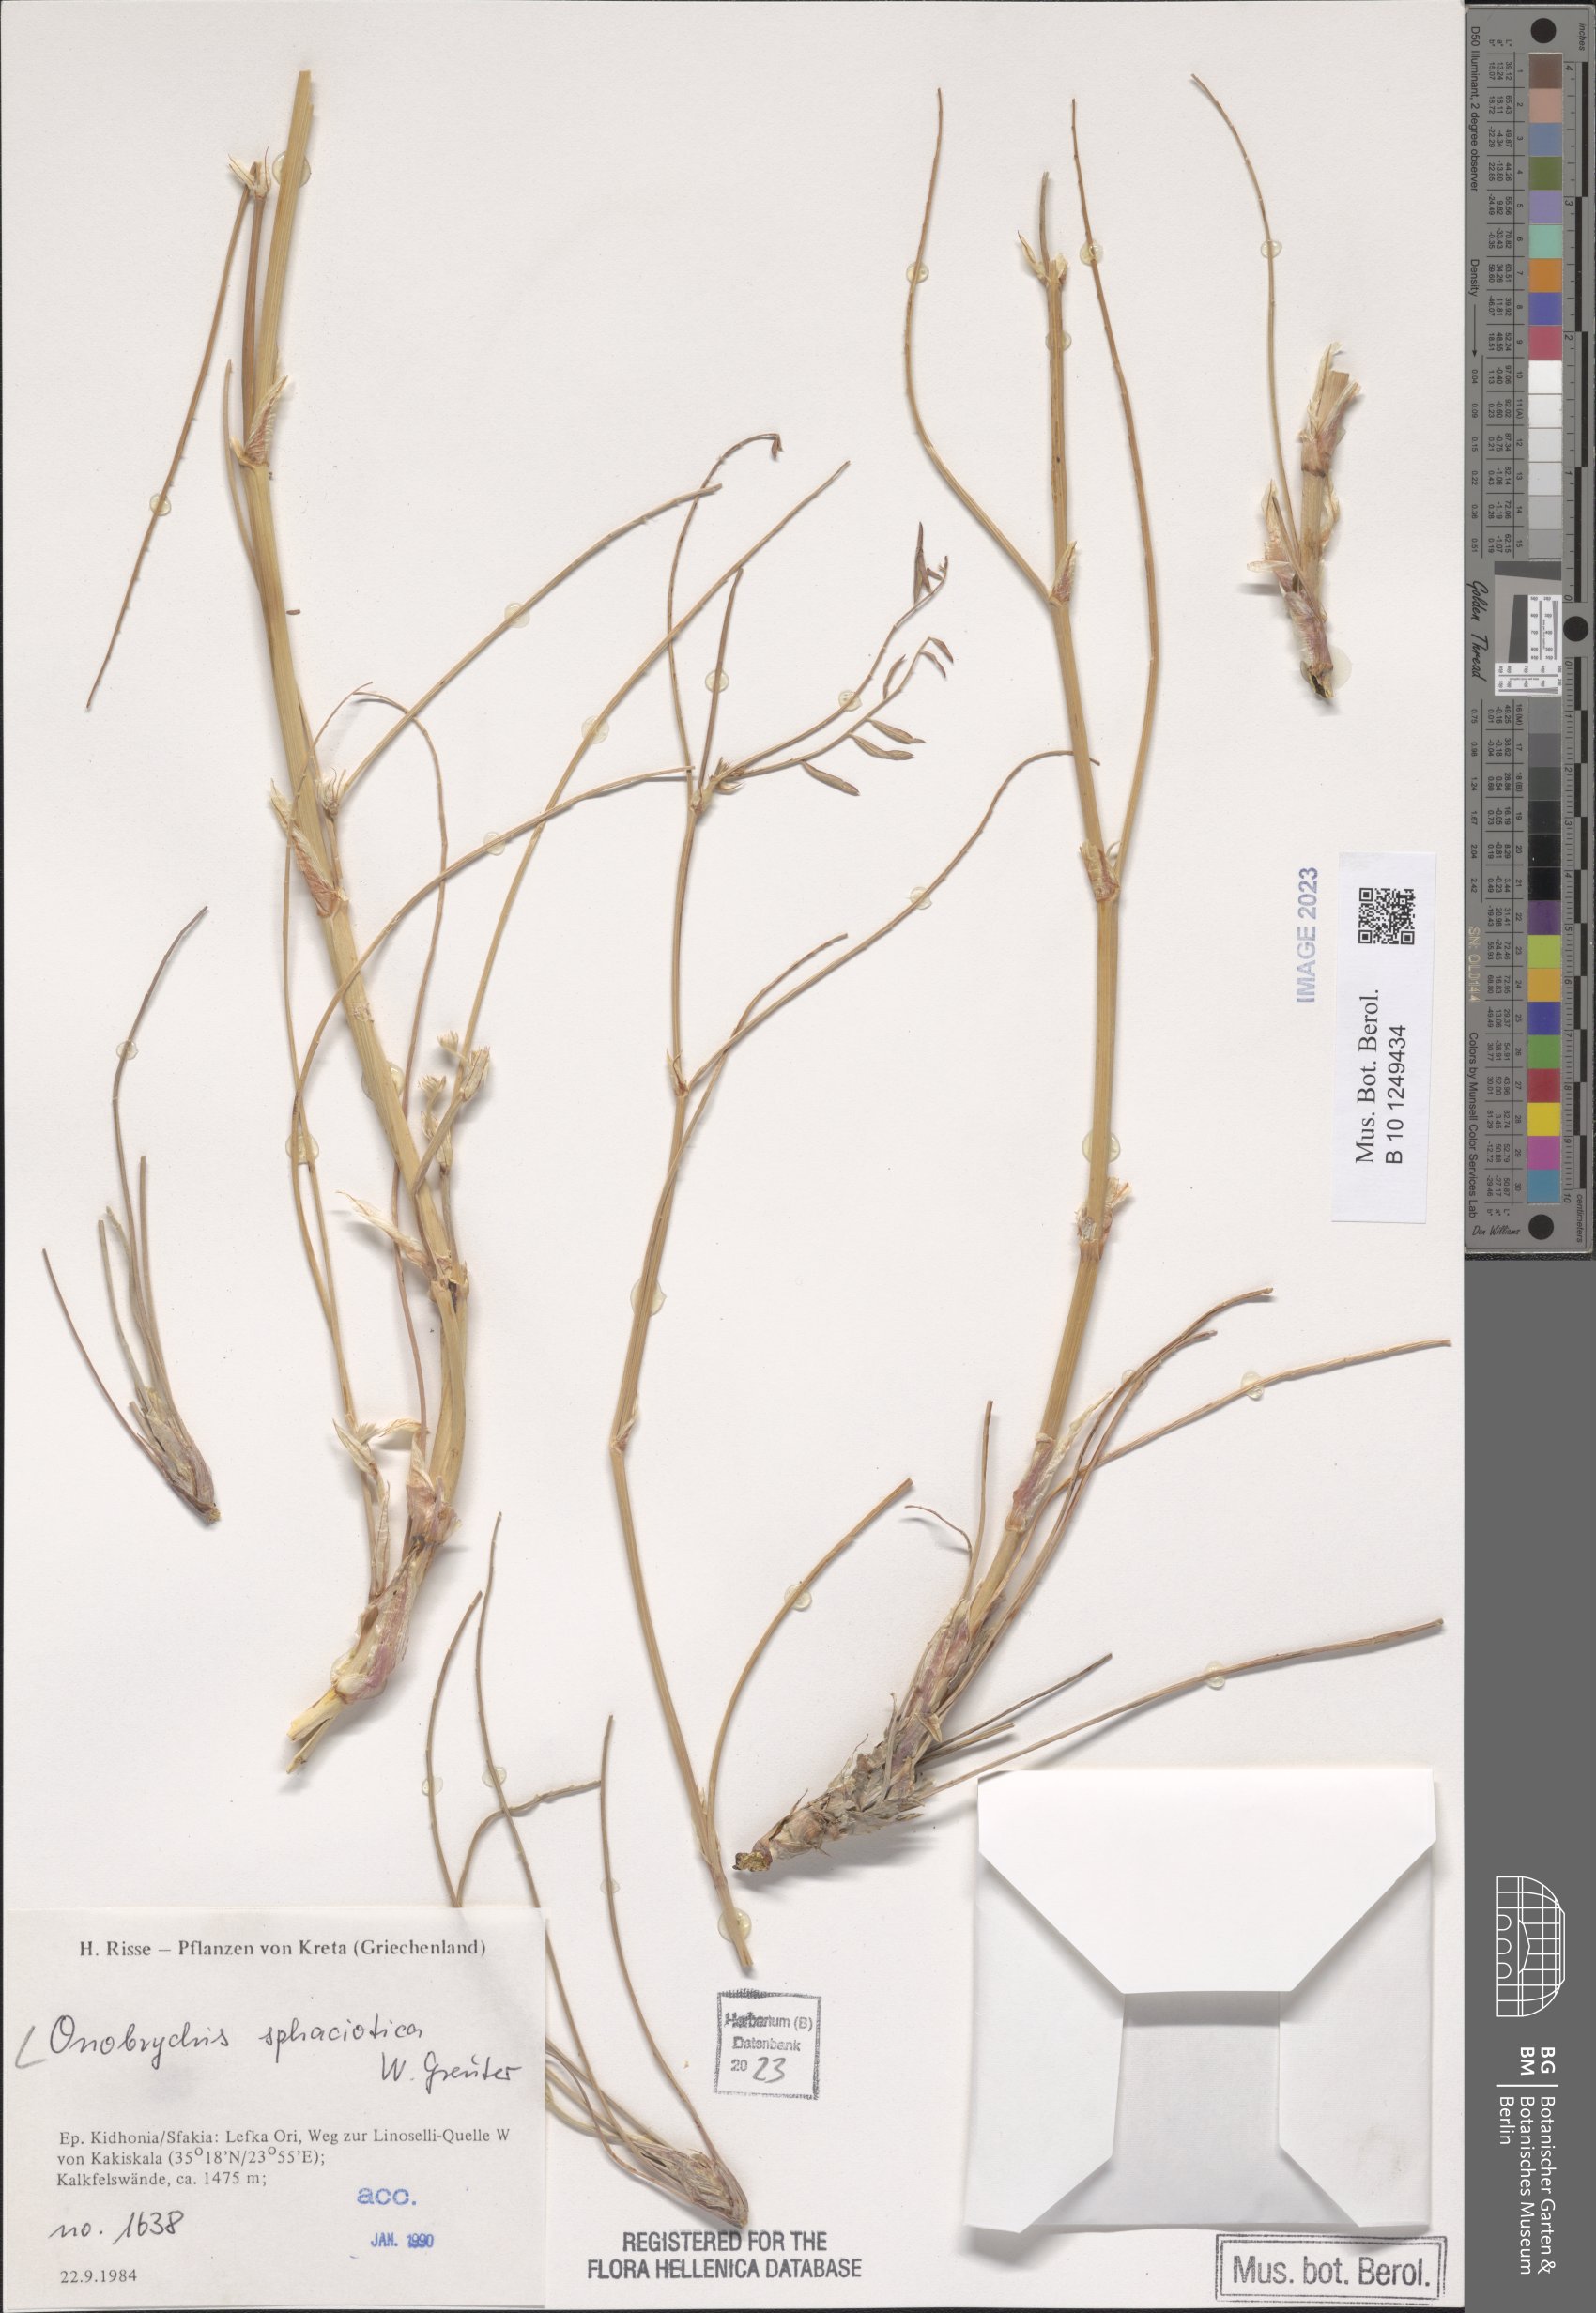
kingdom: Plantae
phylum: Tracheophyta
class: Magnoliopsida
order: Fabales
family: Fabaceae
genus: Onobrychis
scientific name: Onobrychis sphaciotica
